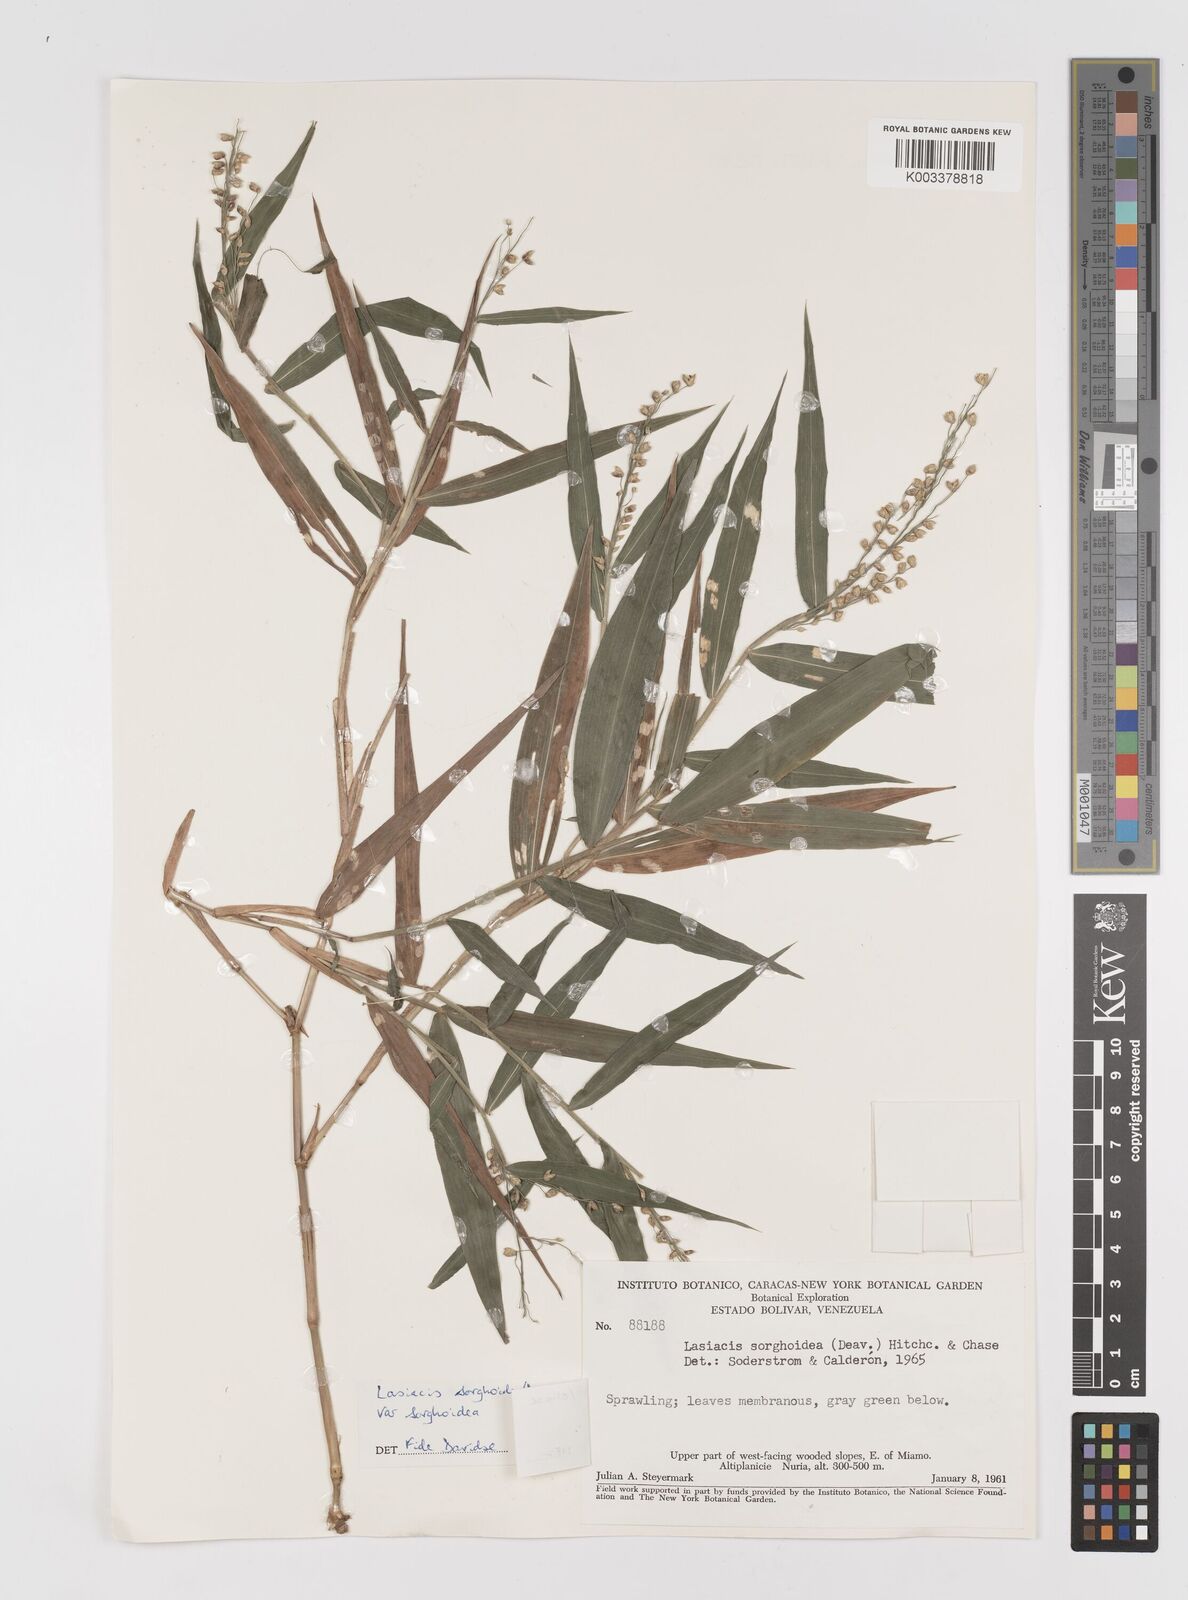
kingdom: Plantae
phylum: Tracheophyta
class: Liliopsida
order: Poales
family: Poaceae
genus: Lasiacis
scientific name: Lasiacis maculata
